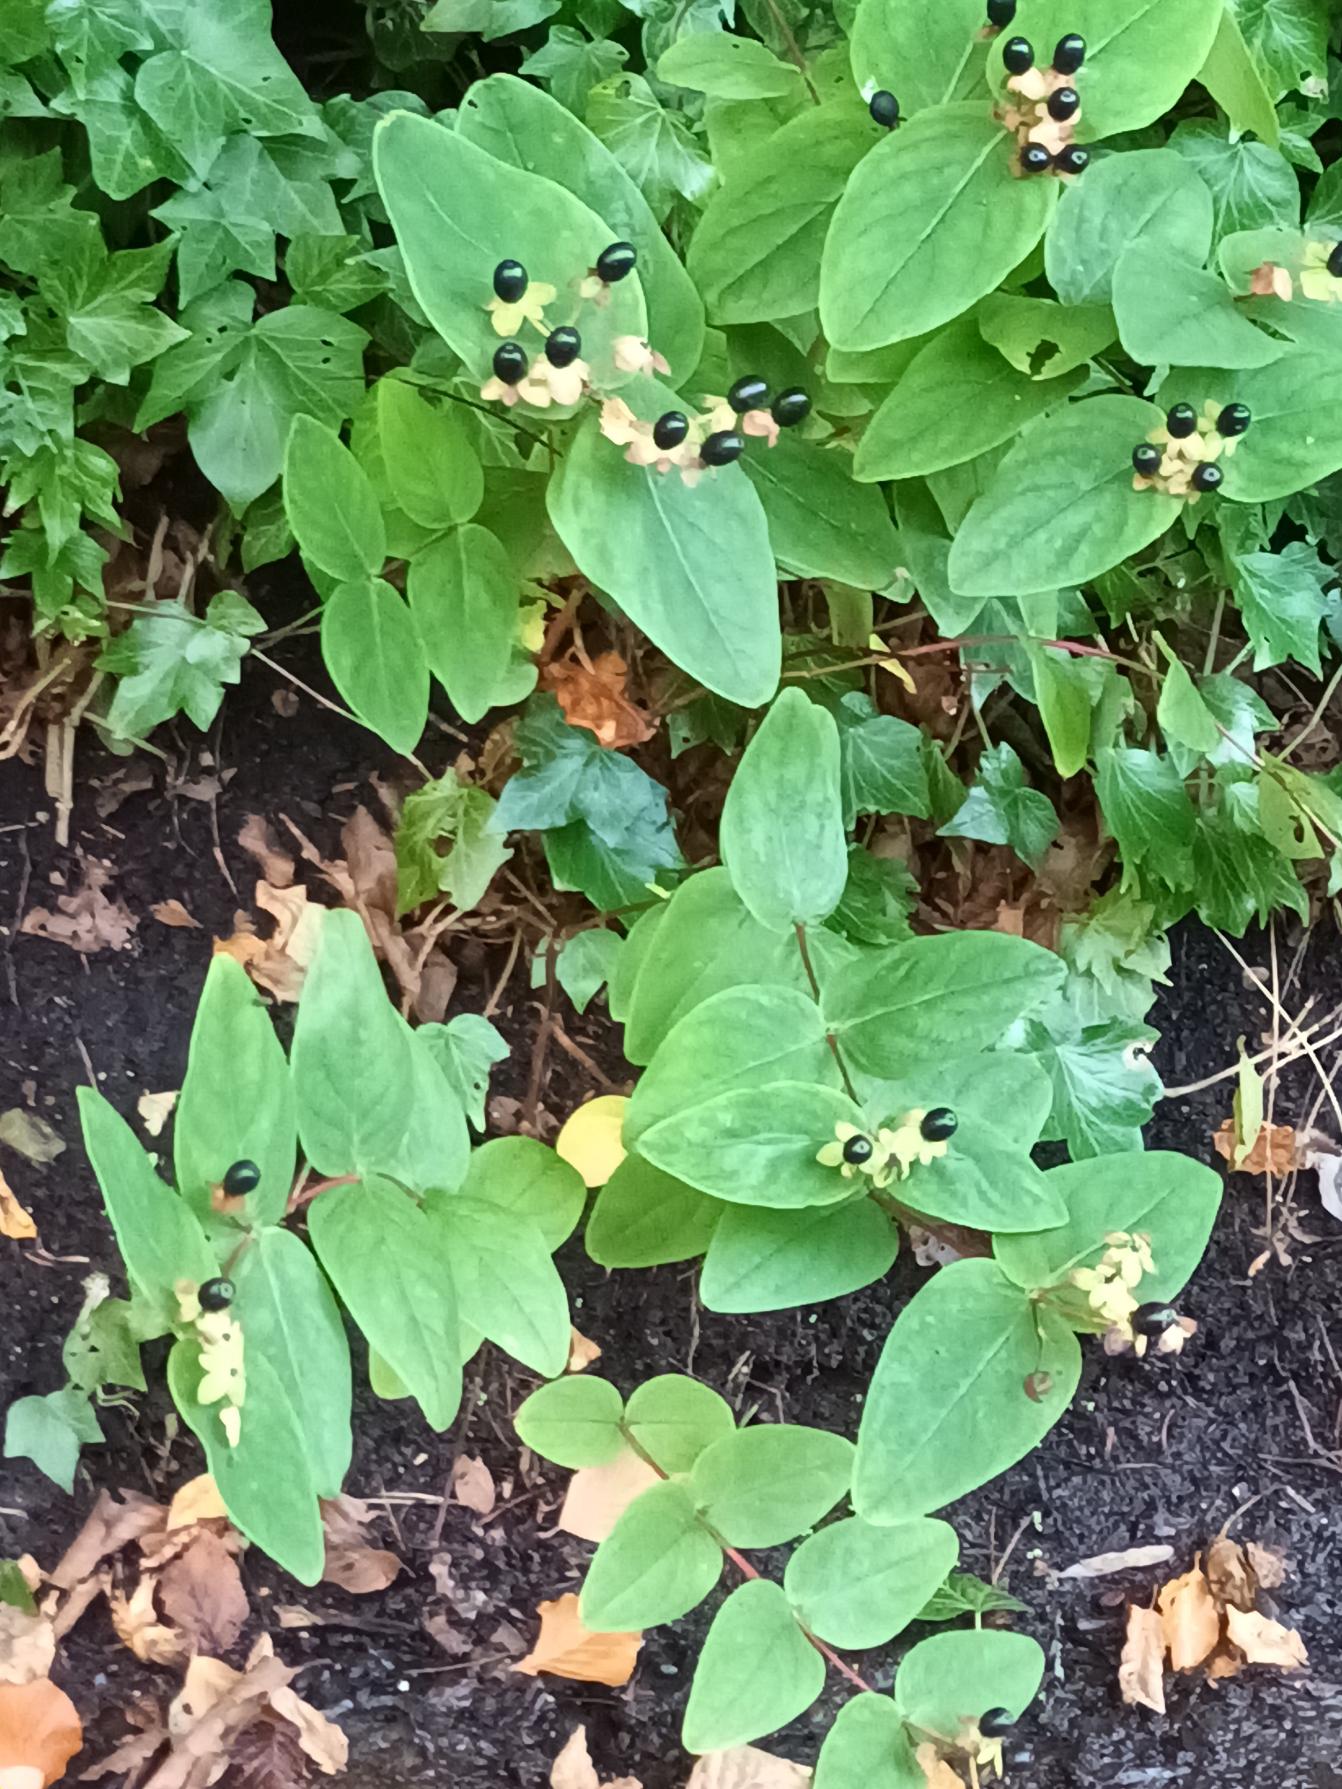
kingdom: Plantae
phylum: Tracheophyta
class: Magnoliopsida
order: Malpighiales
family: Hypericaceae
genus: Hypericum
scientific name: Hypericum androsaemum
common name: Bær-perikon
